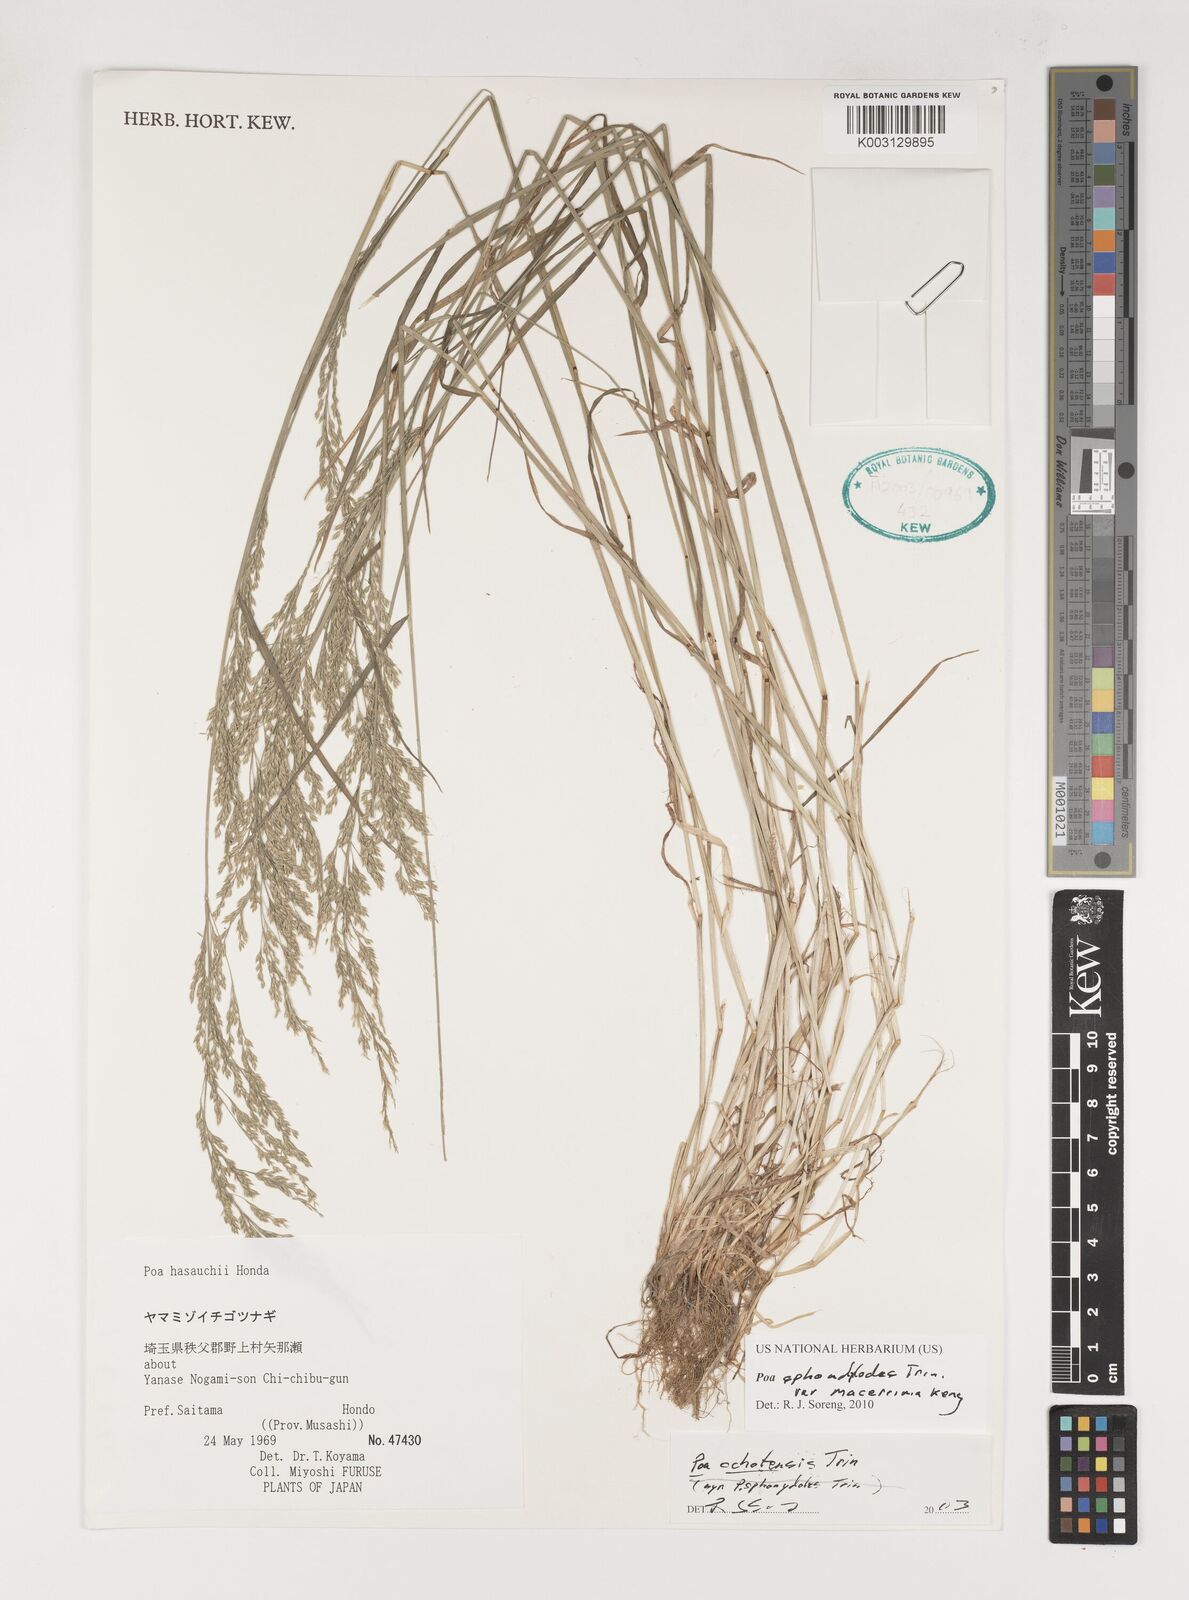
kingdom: Plantae
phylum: Tracheophyta
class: Liliopsida
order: Poales
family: Poaceae
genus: Poa
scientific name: Poa sphondylodes
